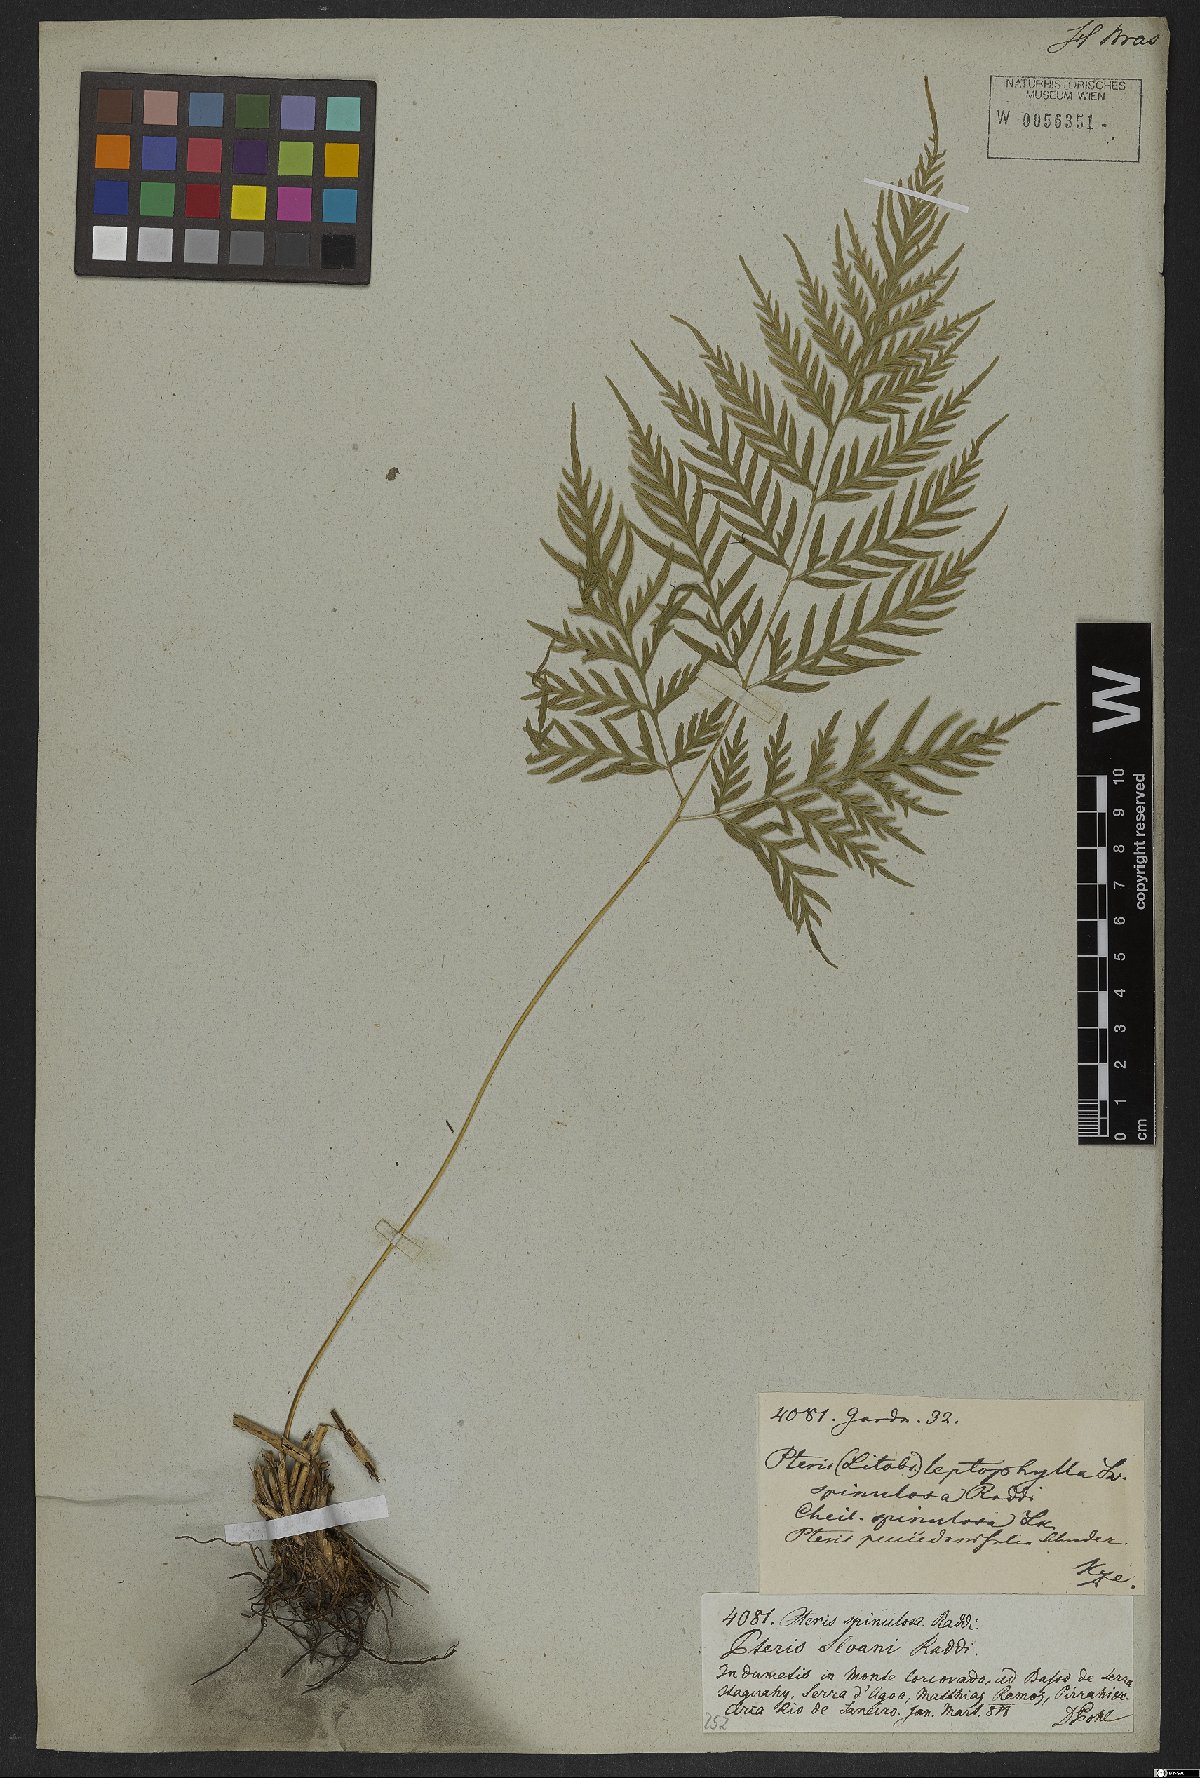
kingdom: Plantae
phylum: Tracheophyta
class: Polypodiopsida
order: Polypodiales
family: Pteridaceae
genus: Pteris
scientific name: Pteris leptophylla
